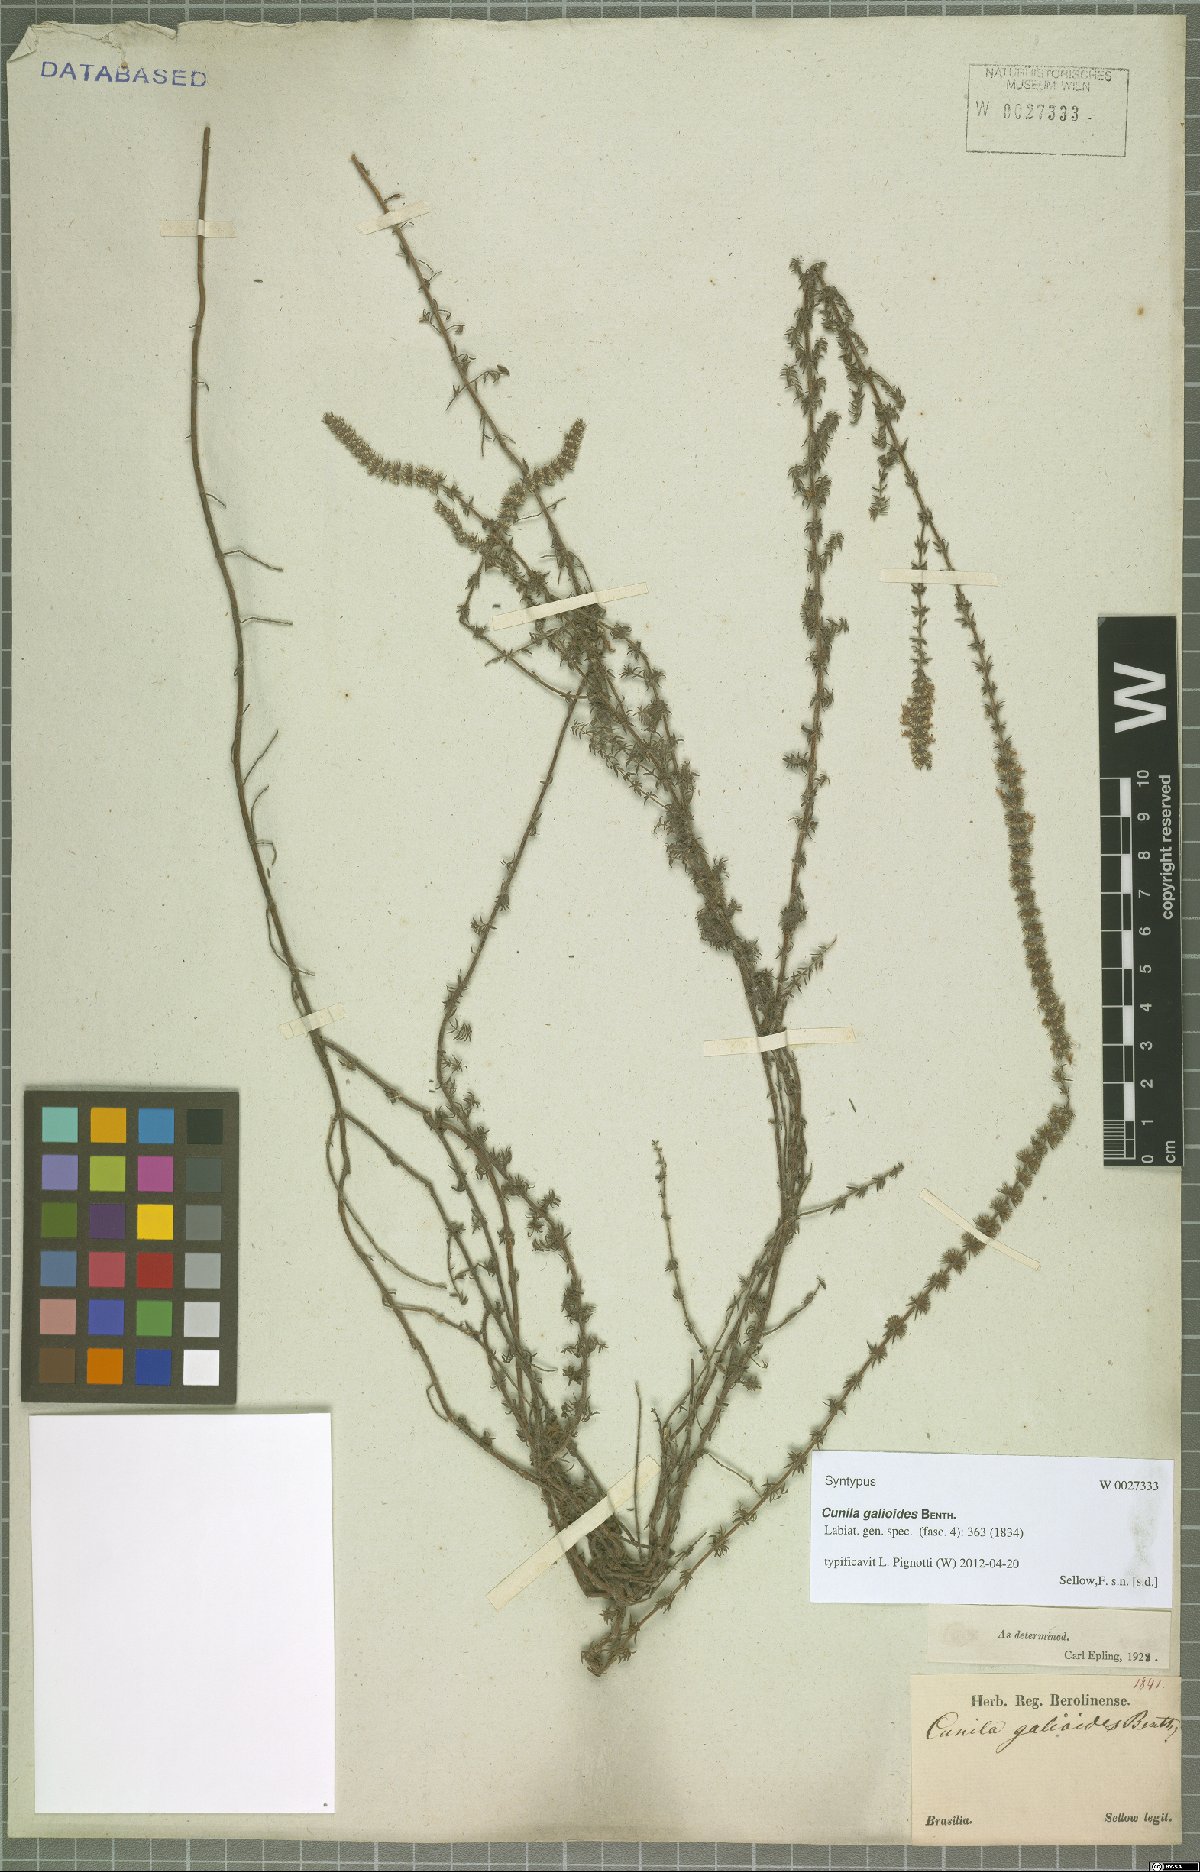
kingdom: Plantae
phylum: Tracheophyta
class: Magnoliopsida
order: Lamiales
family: Lamiaceae
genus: Cunila
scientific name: Cunila galioides
